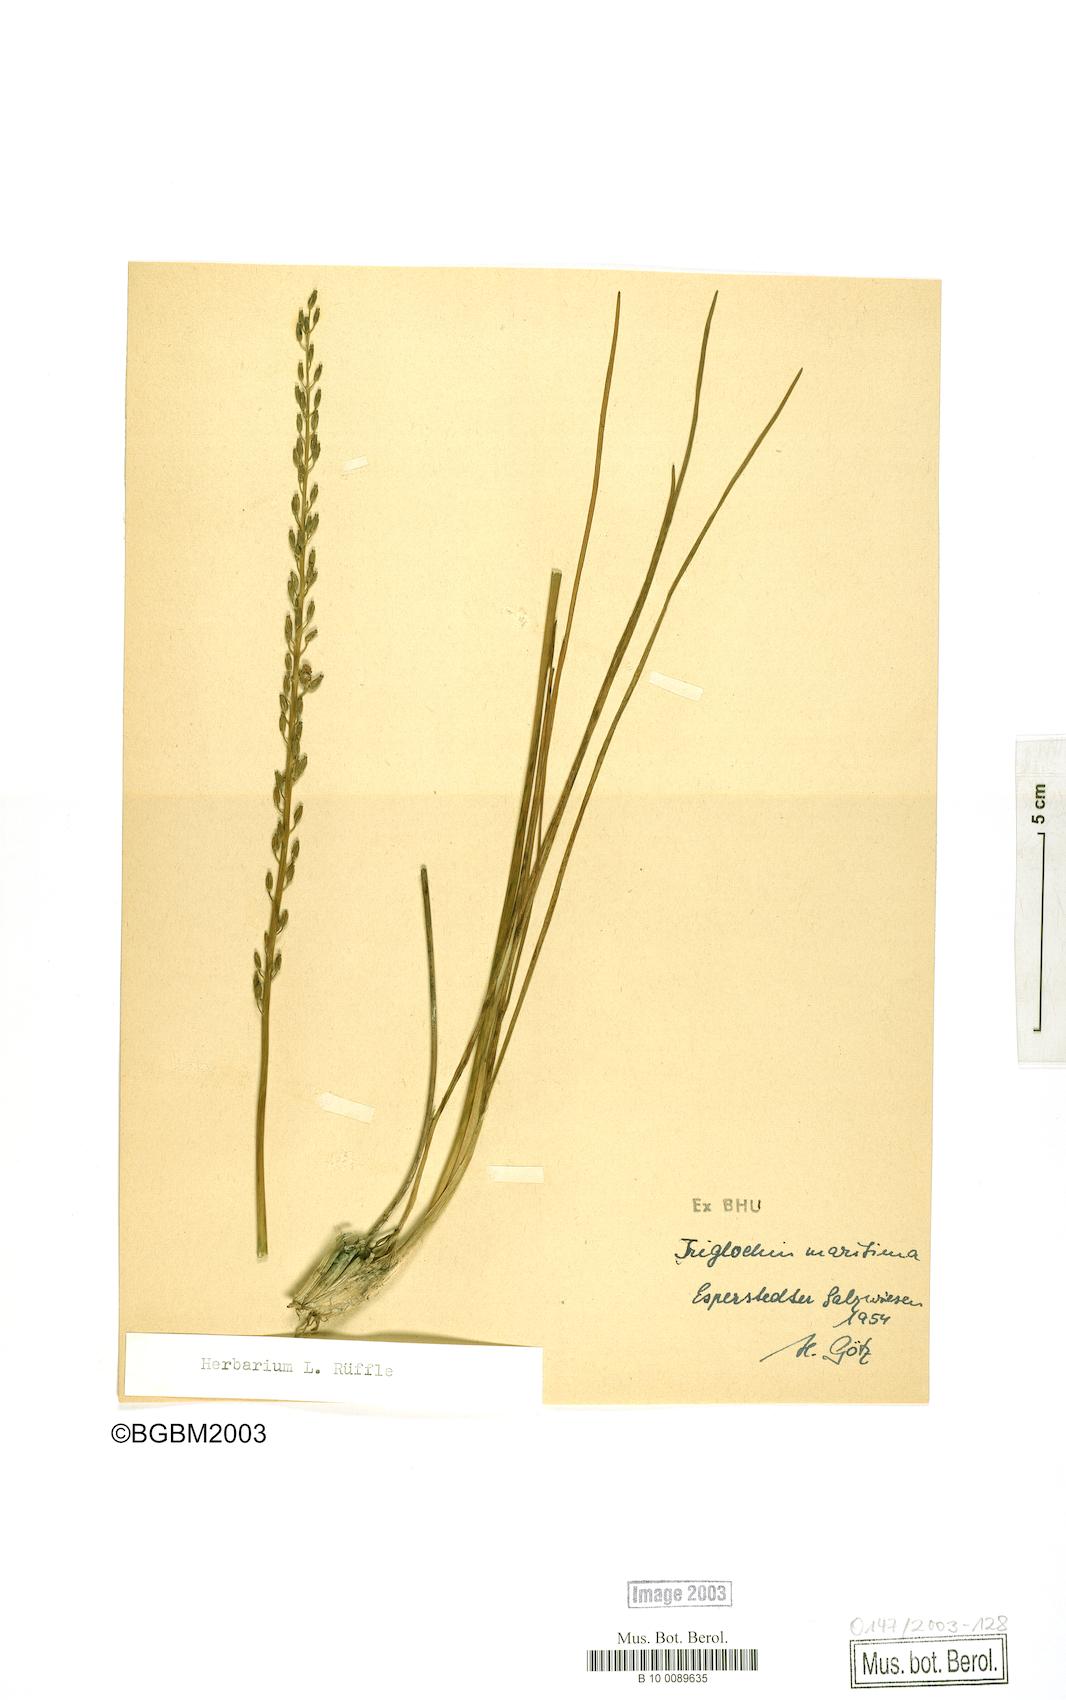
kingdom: Plantae
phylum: Tracheophyta
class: Liliopsida
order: Alismatales
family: Juncaginaceae
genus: Triglochin
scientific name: Triglochin maritima
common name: Sea arrowgrass
